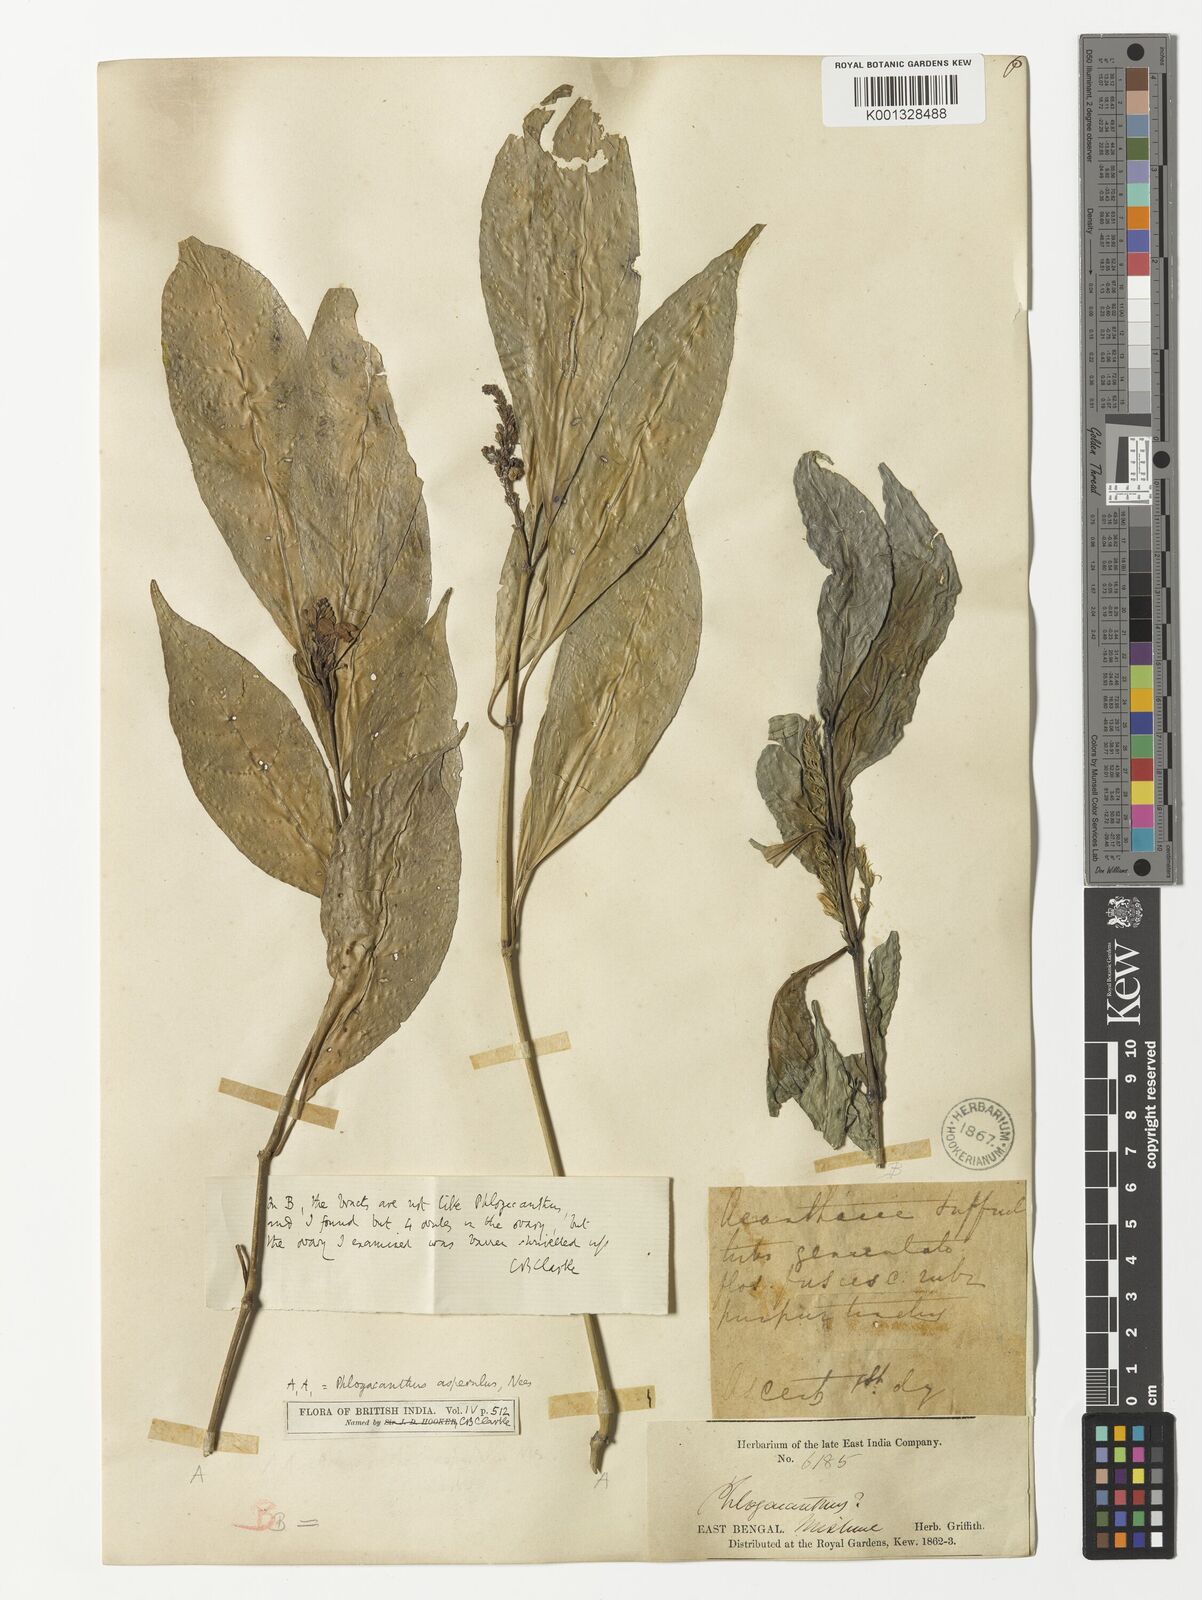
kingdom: Plantae
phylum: Tracheophyta
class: Magnoliopsida
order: Lamiales
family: Acanthaceae
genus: Phlogacanthus
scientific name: Phlogacanthus gomezii
